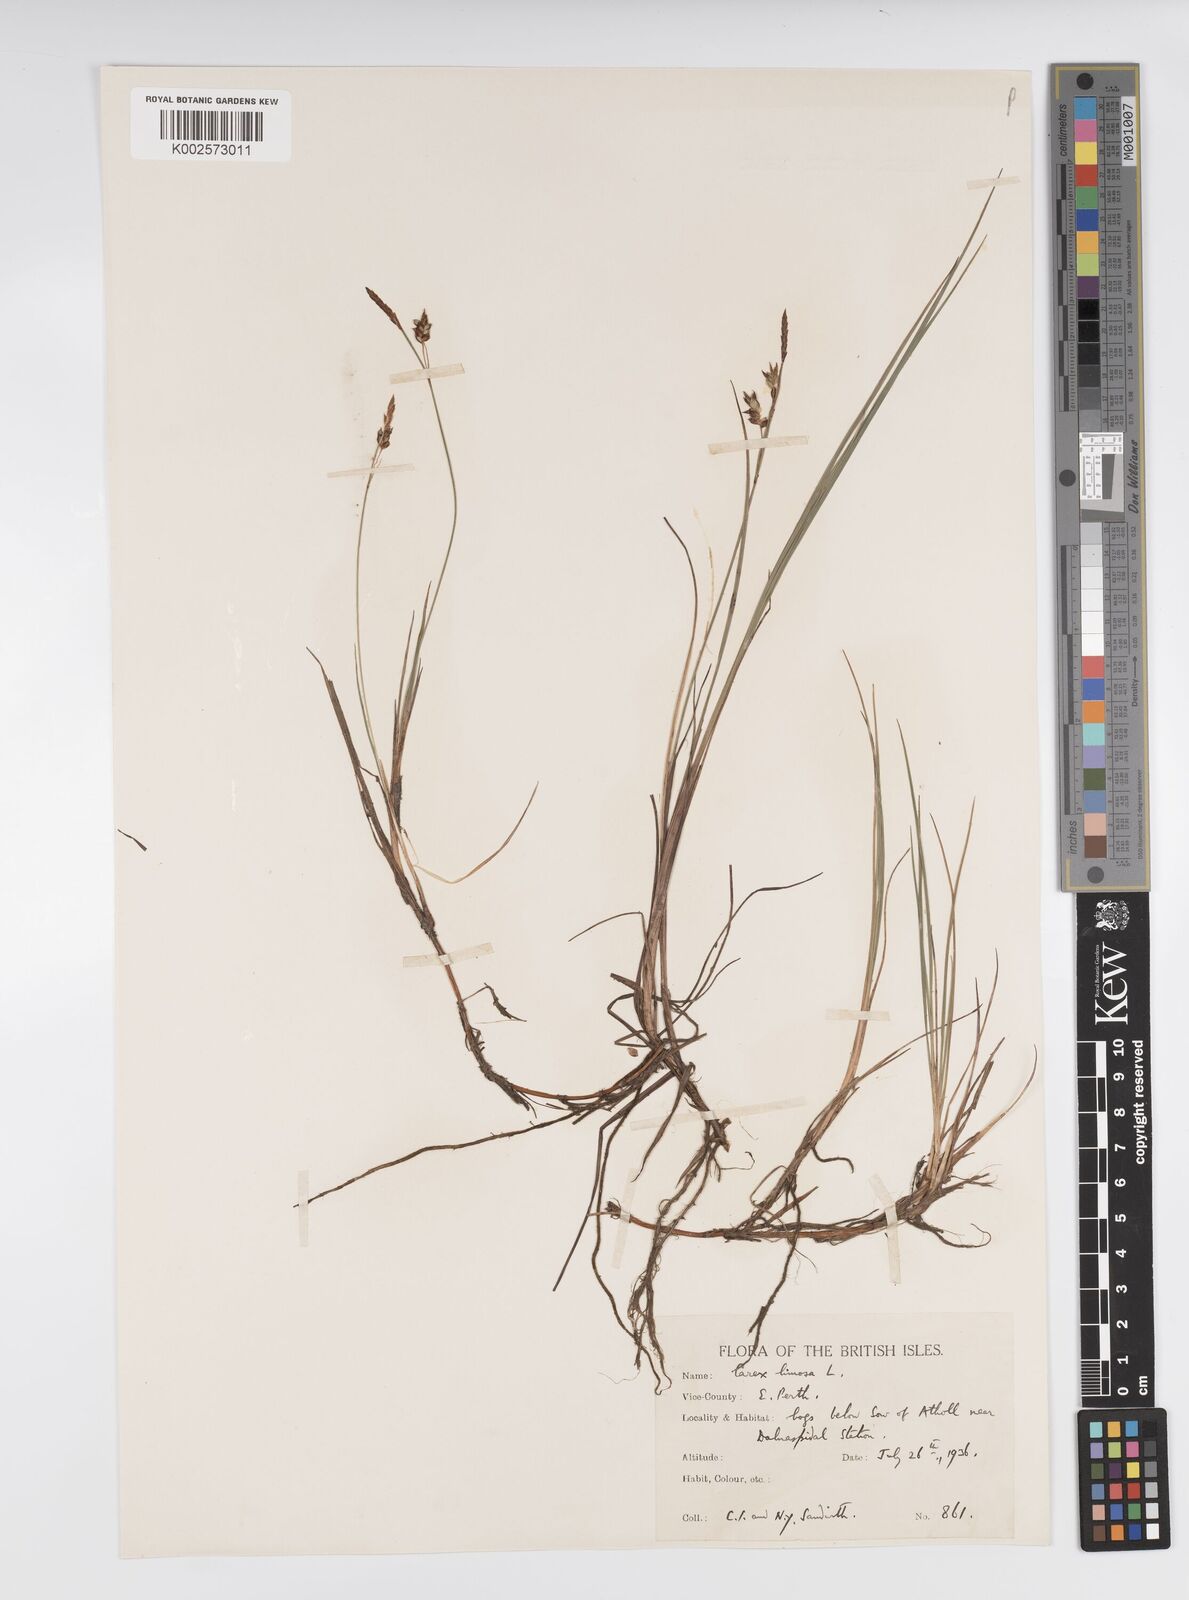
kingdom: Plantae
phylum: Tracheophyta
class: Liliopsida
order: Poales
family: Cyperaceae
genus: Carex
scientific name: Carex limosa
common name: Bog sedge
